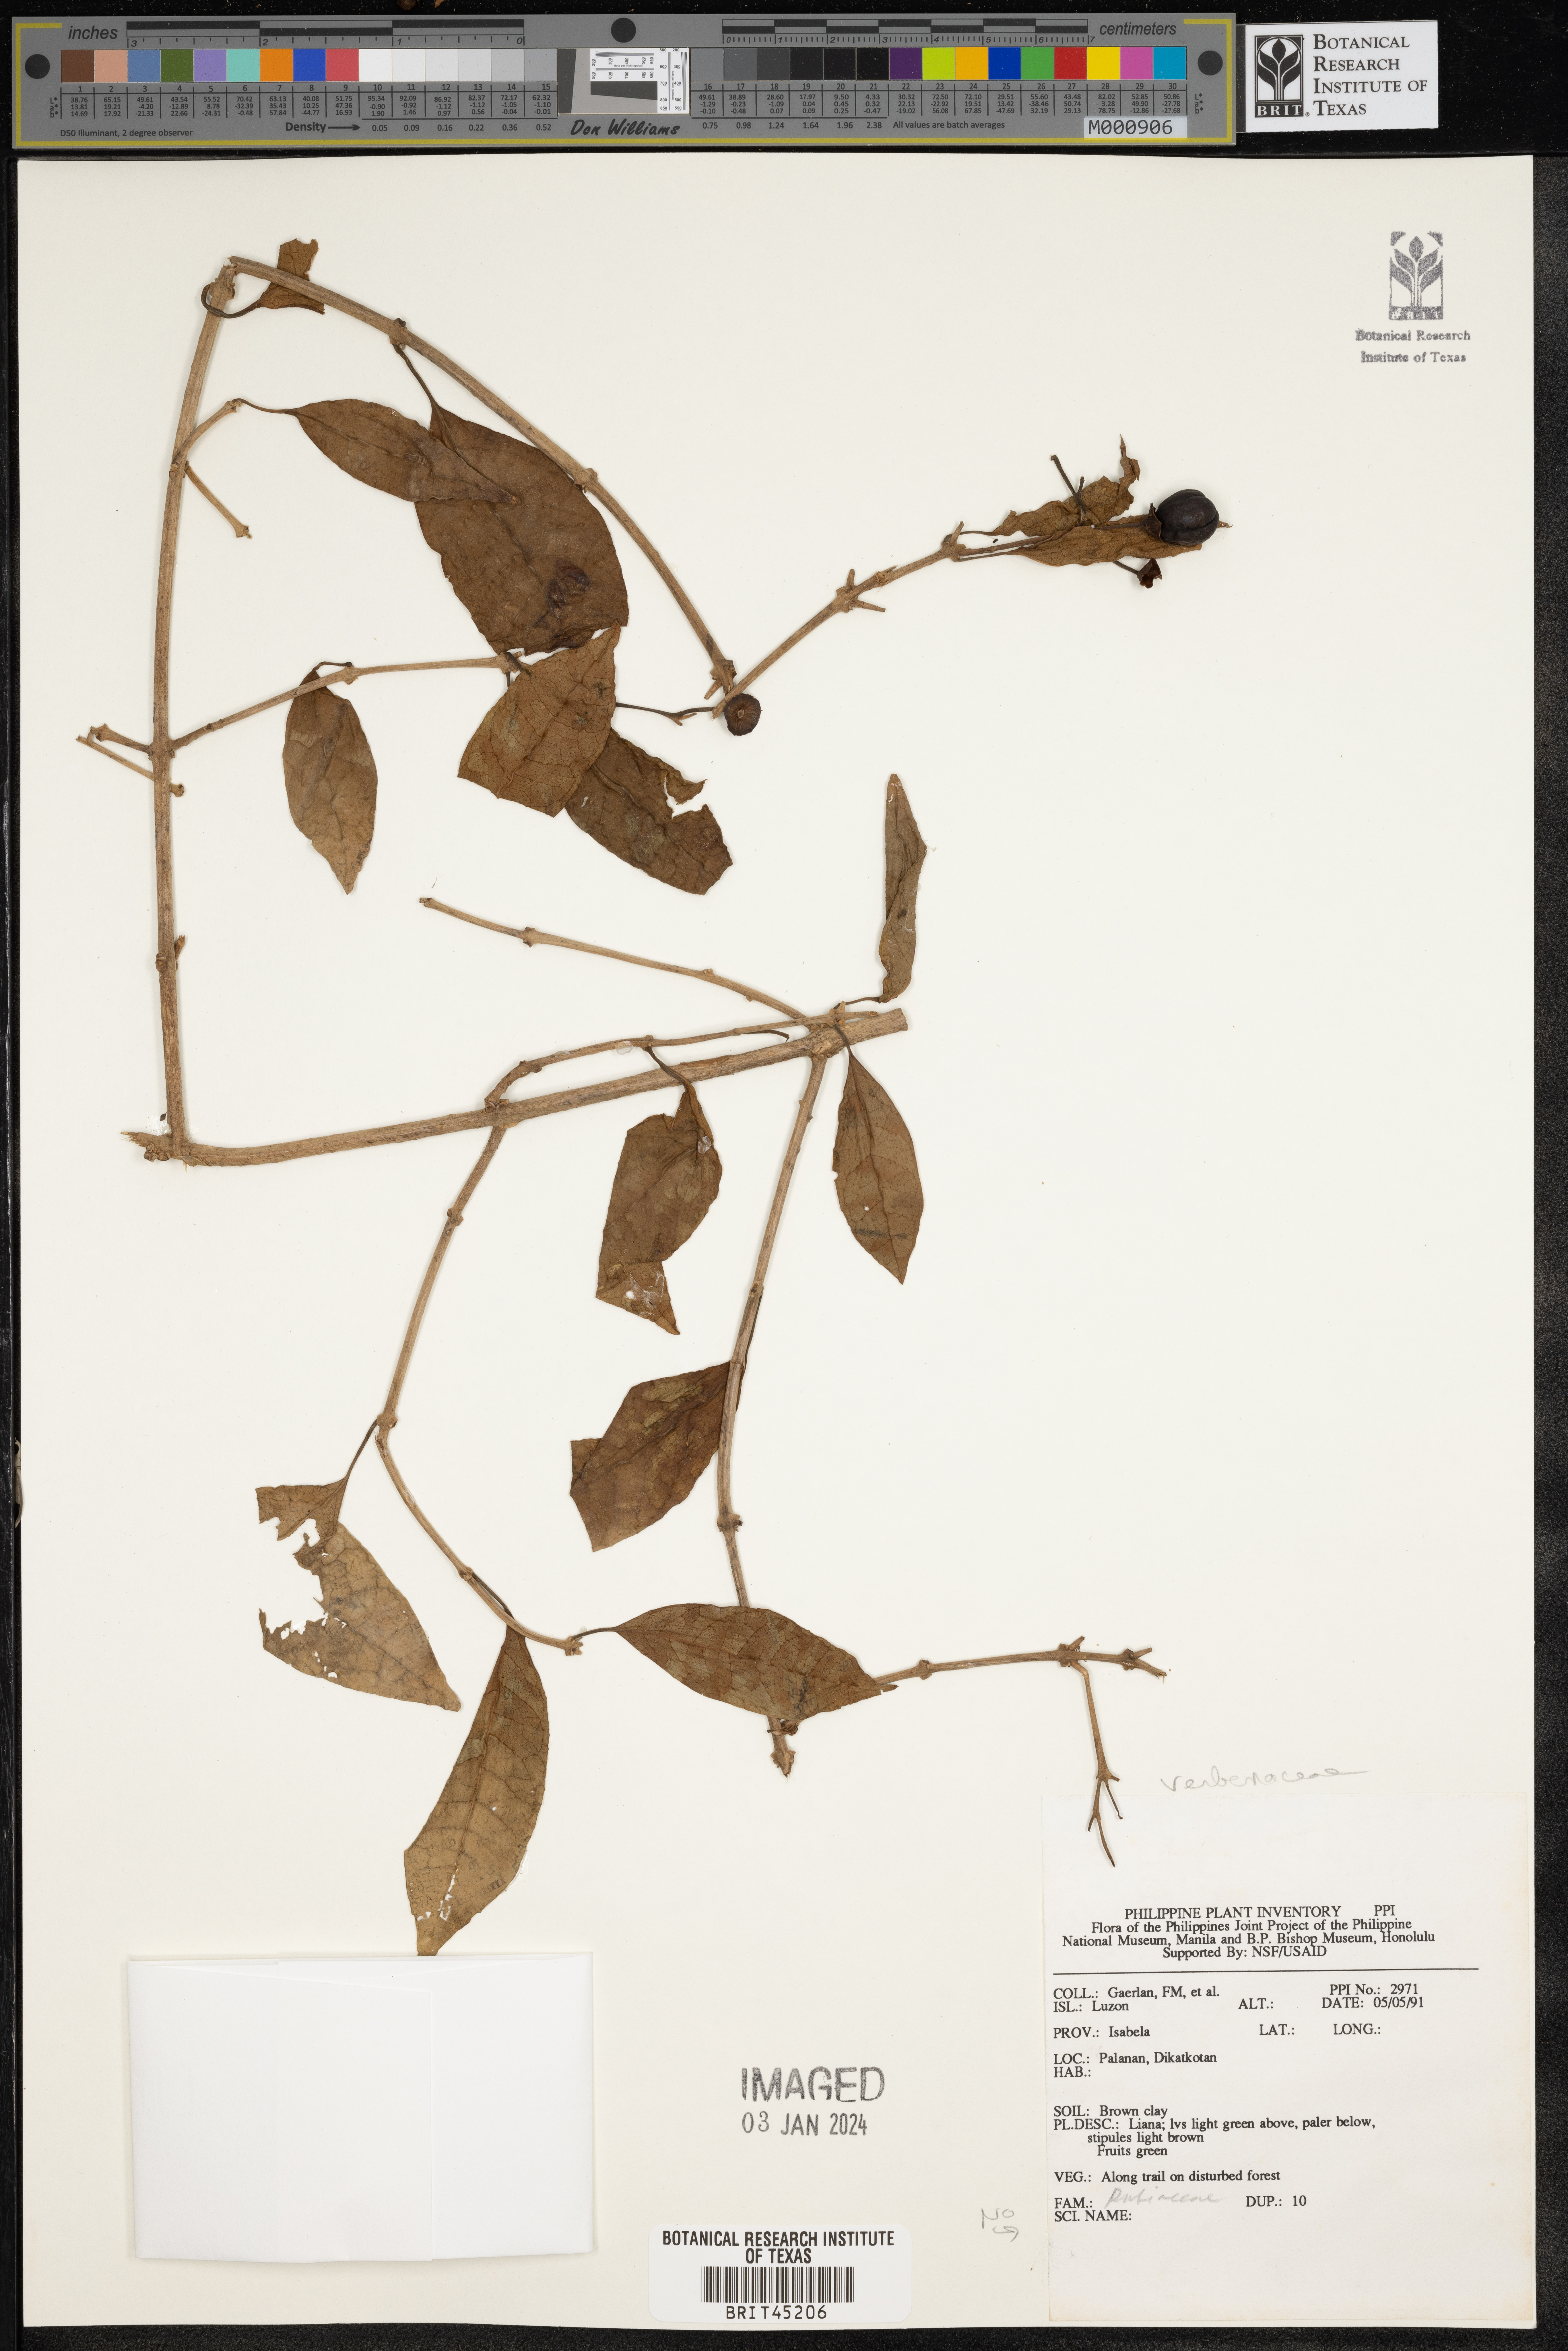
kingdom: Plantae
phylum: Tracheophyta
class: Magnoliopsida
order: Lamiales
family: Verbenaceae
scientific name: Verbenaceae
